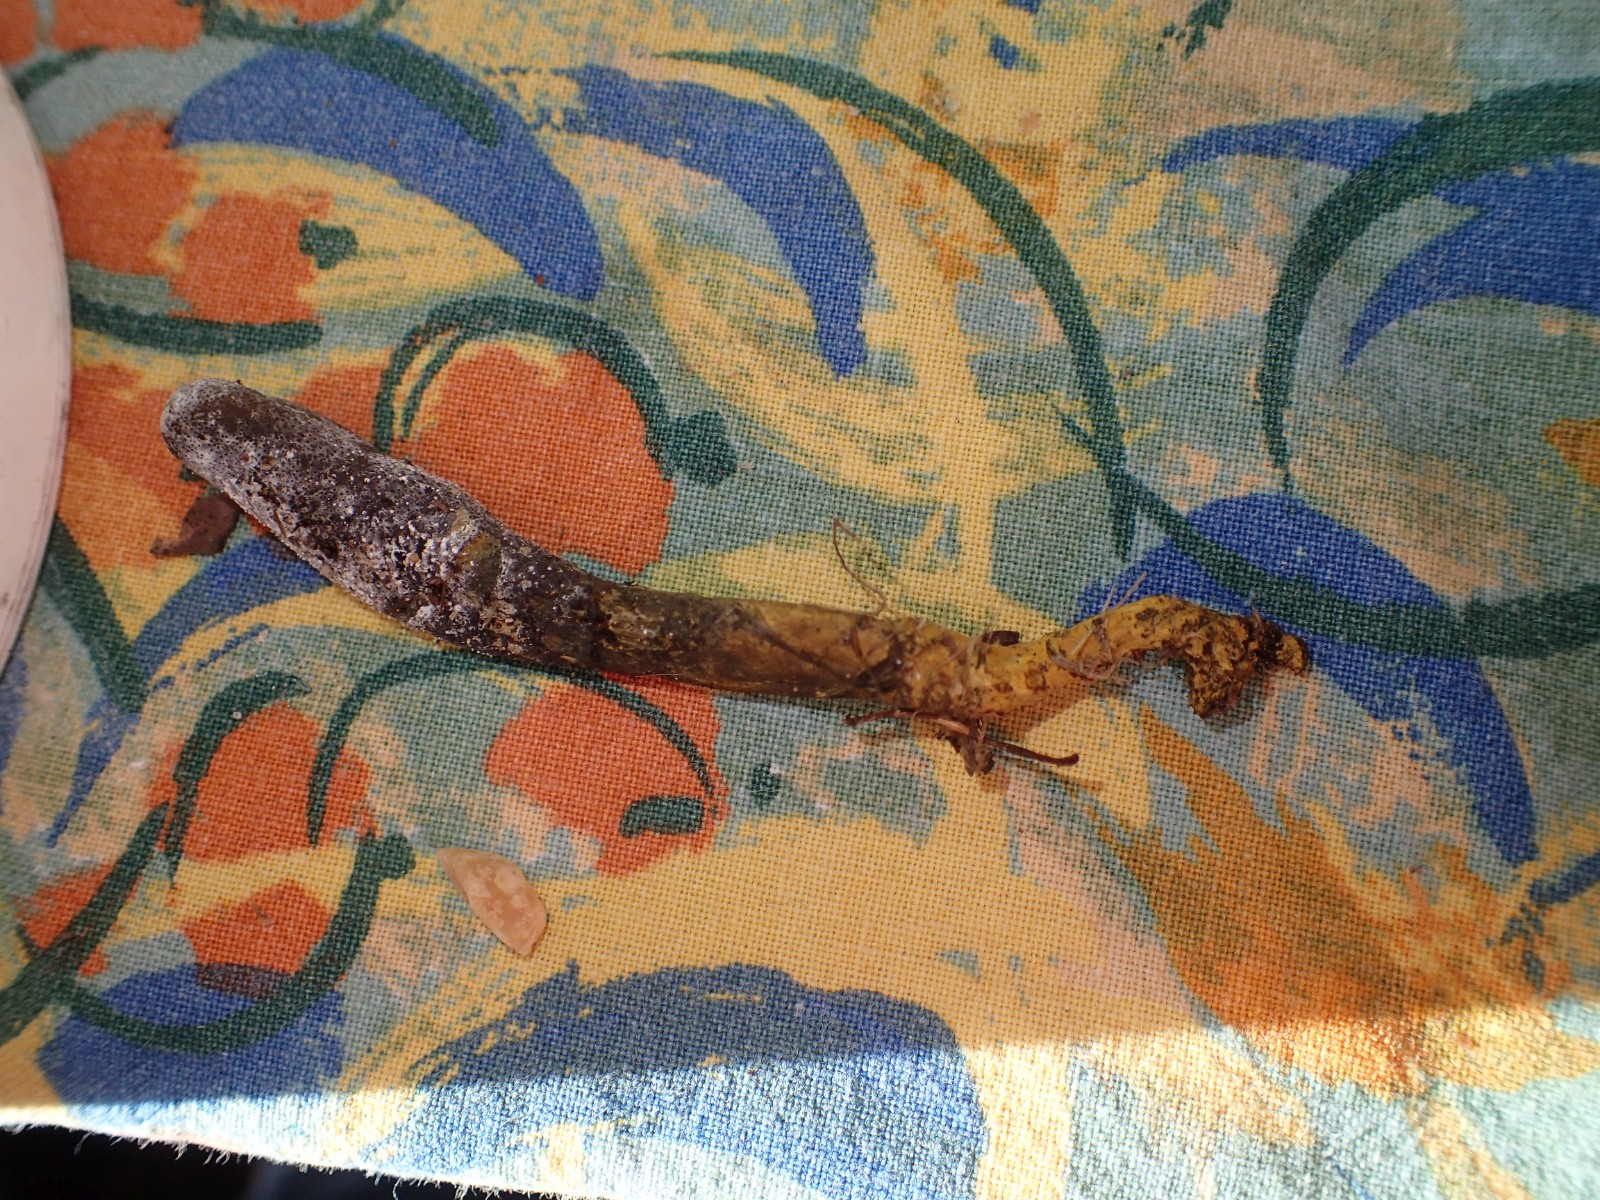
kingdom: Fungi
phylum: Ascomycota
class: Sordariomycetes
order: Hypocreales
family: Ophiocordycipitaceae
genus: Tolypocladium
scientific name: Tolypocladium ophioglossoides
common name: slank snyltekølle
